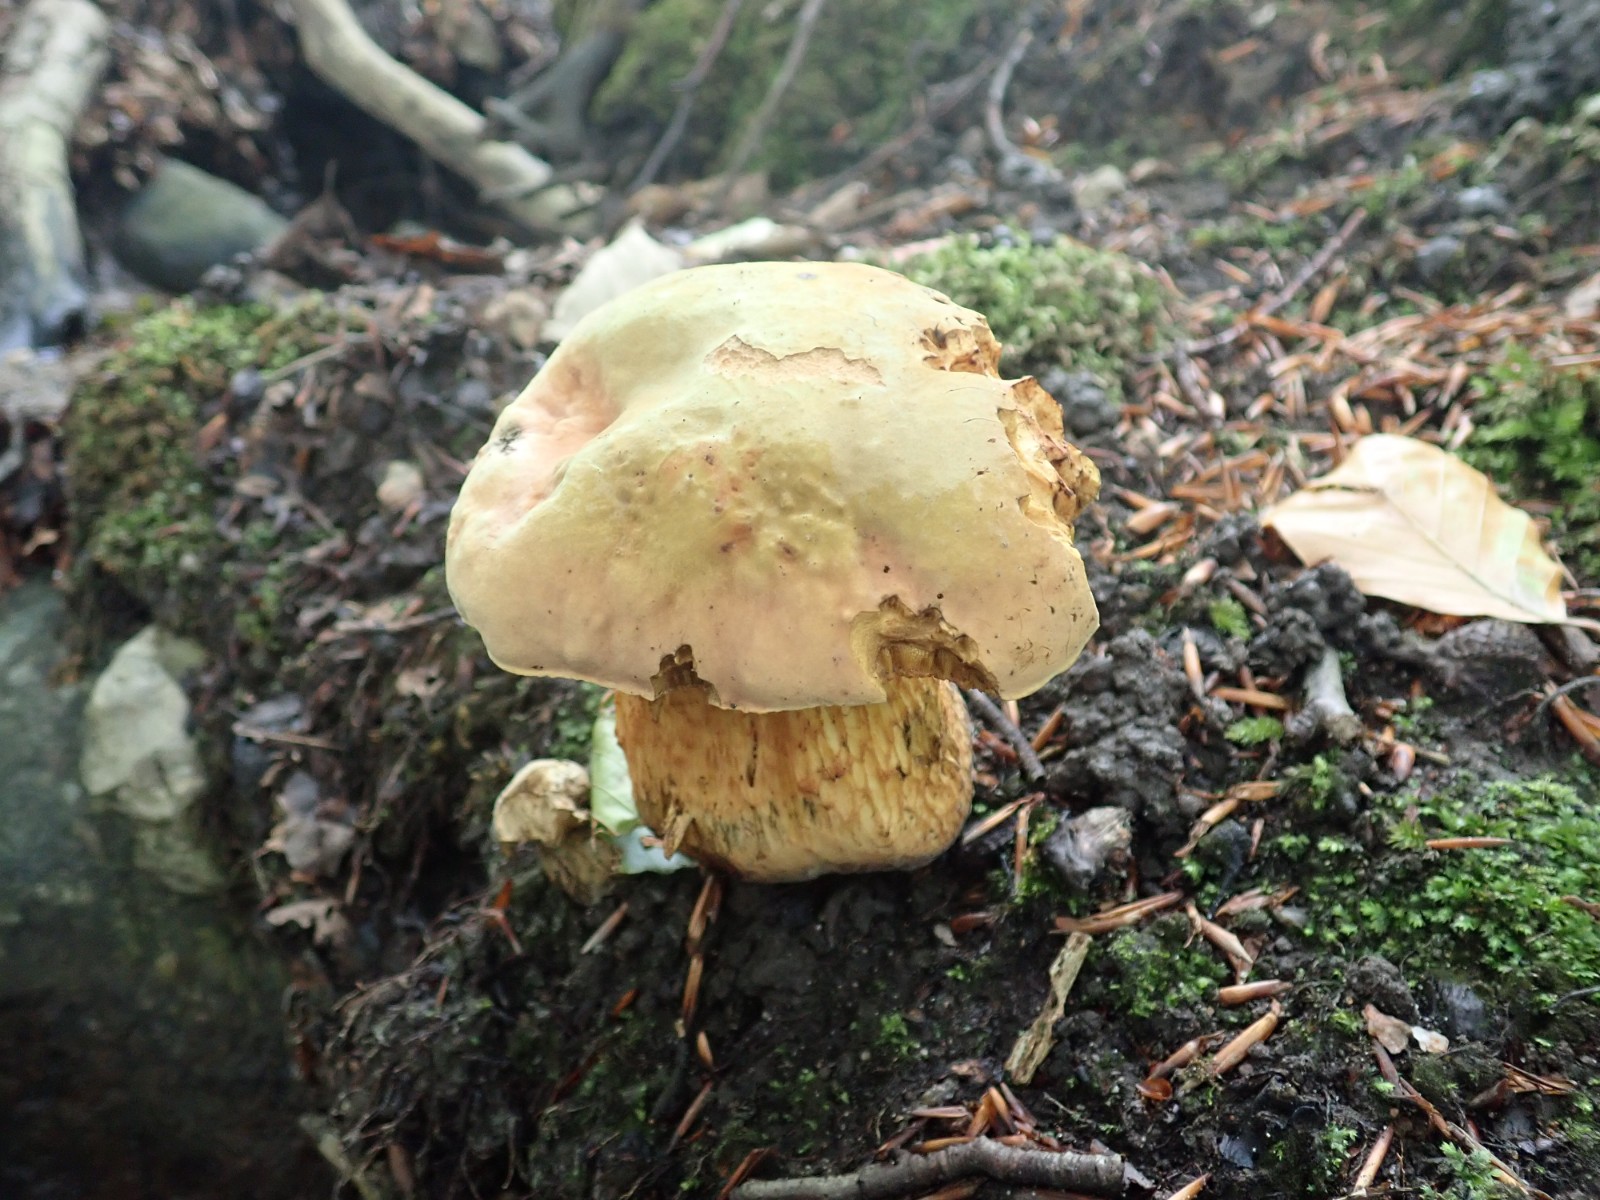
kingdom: Fungi
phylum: Basidiomycota
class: Agaricomycetes
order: Boletales
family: Boletaceae
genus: Suillellus
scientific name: Suillellus luridus
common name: netstokket indigorørhat
